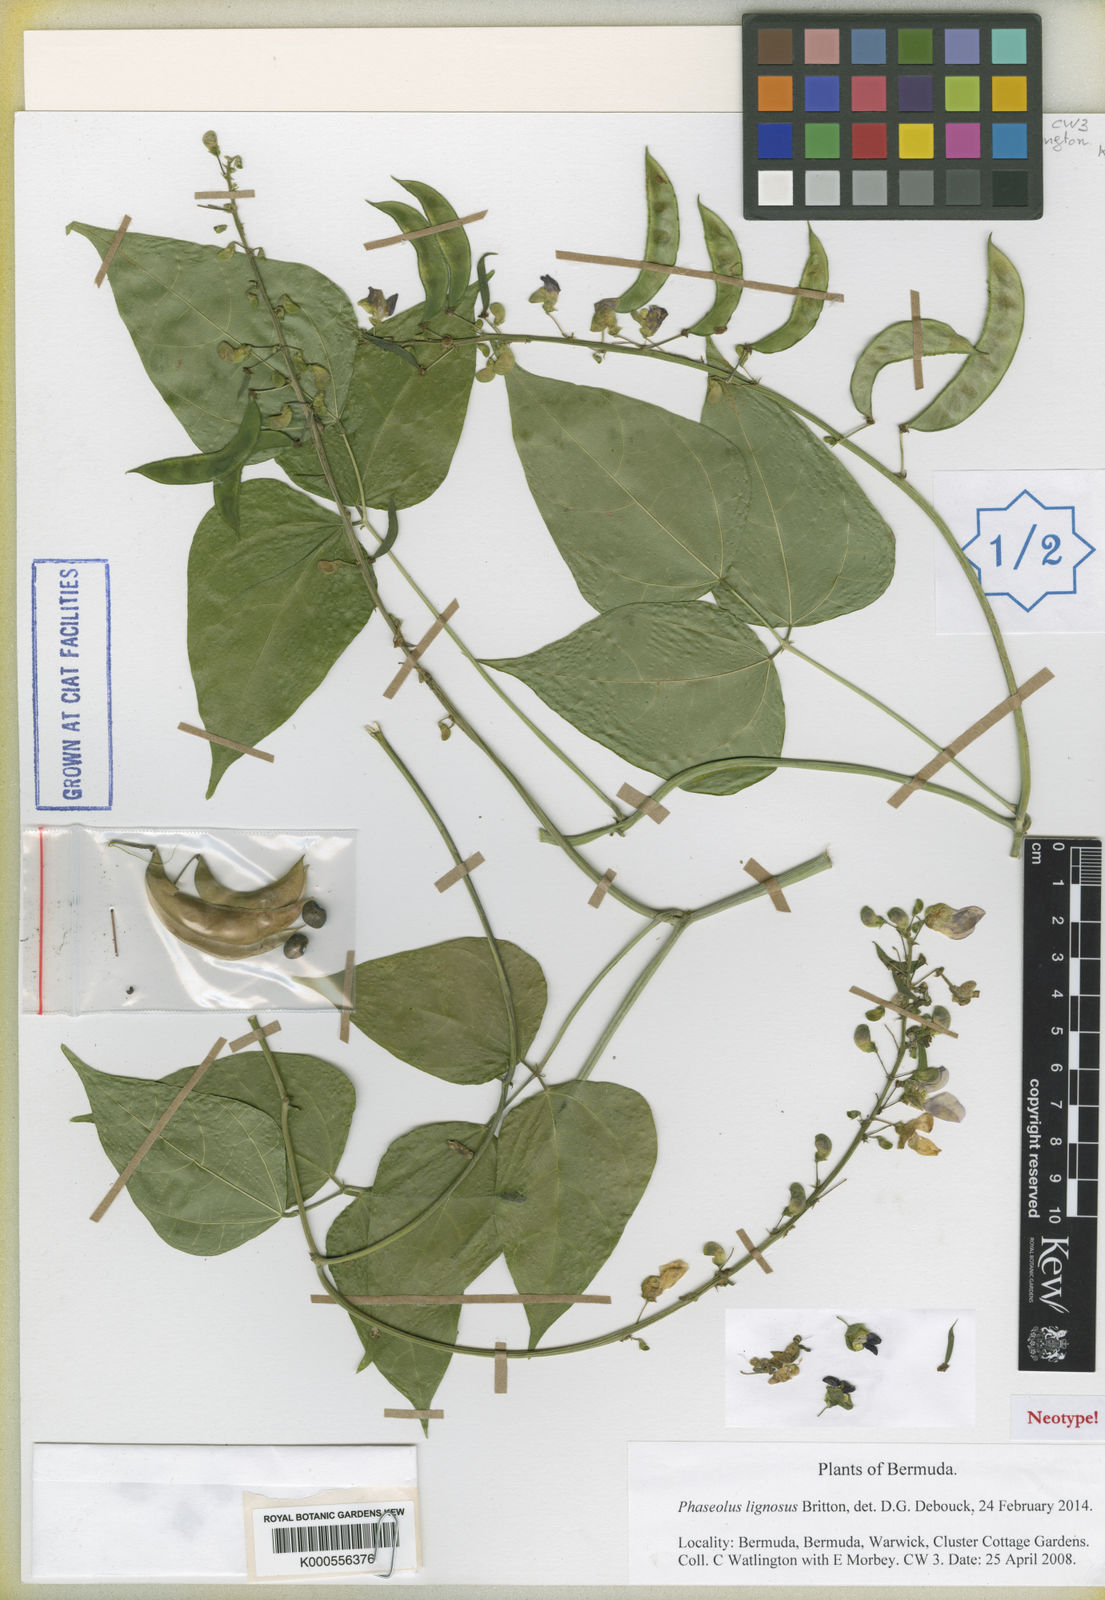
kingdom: Plantae
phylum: Tracheophyta
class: Magnoliopsida
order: Fabales
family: Fabaceae
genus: Phaseolus
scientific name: Phaseolus lignosus
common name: Bermuda bean
